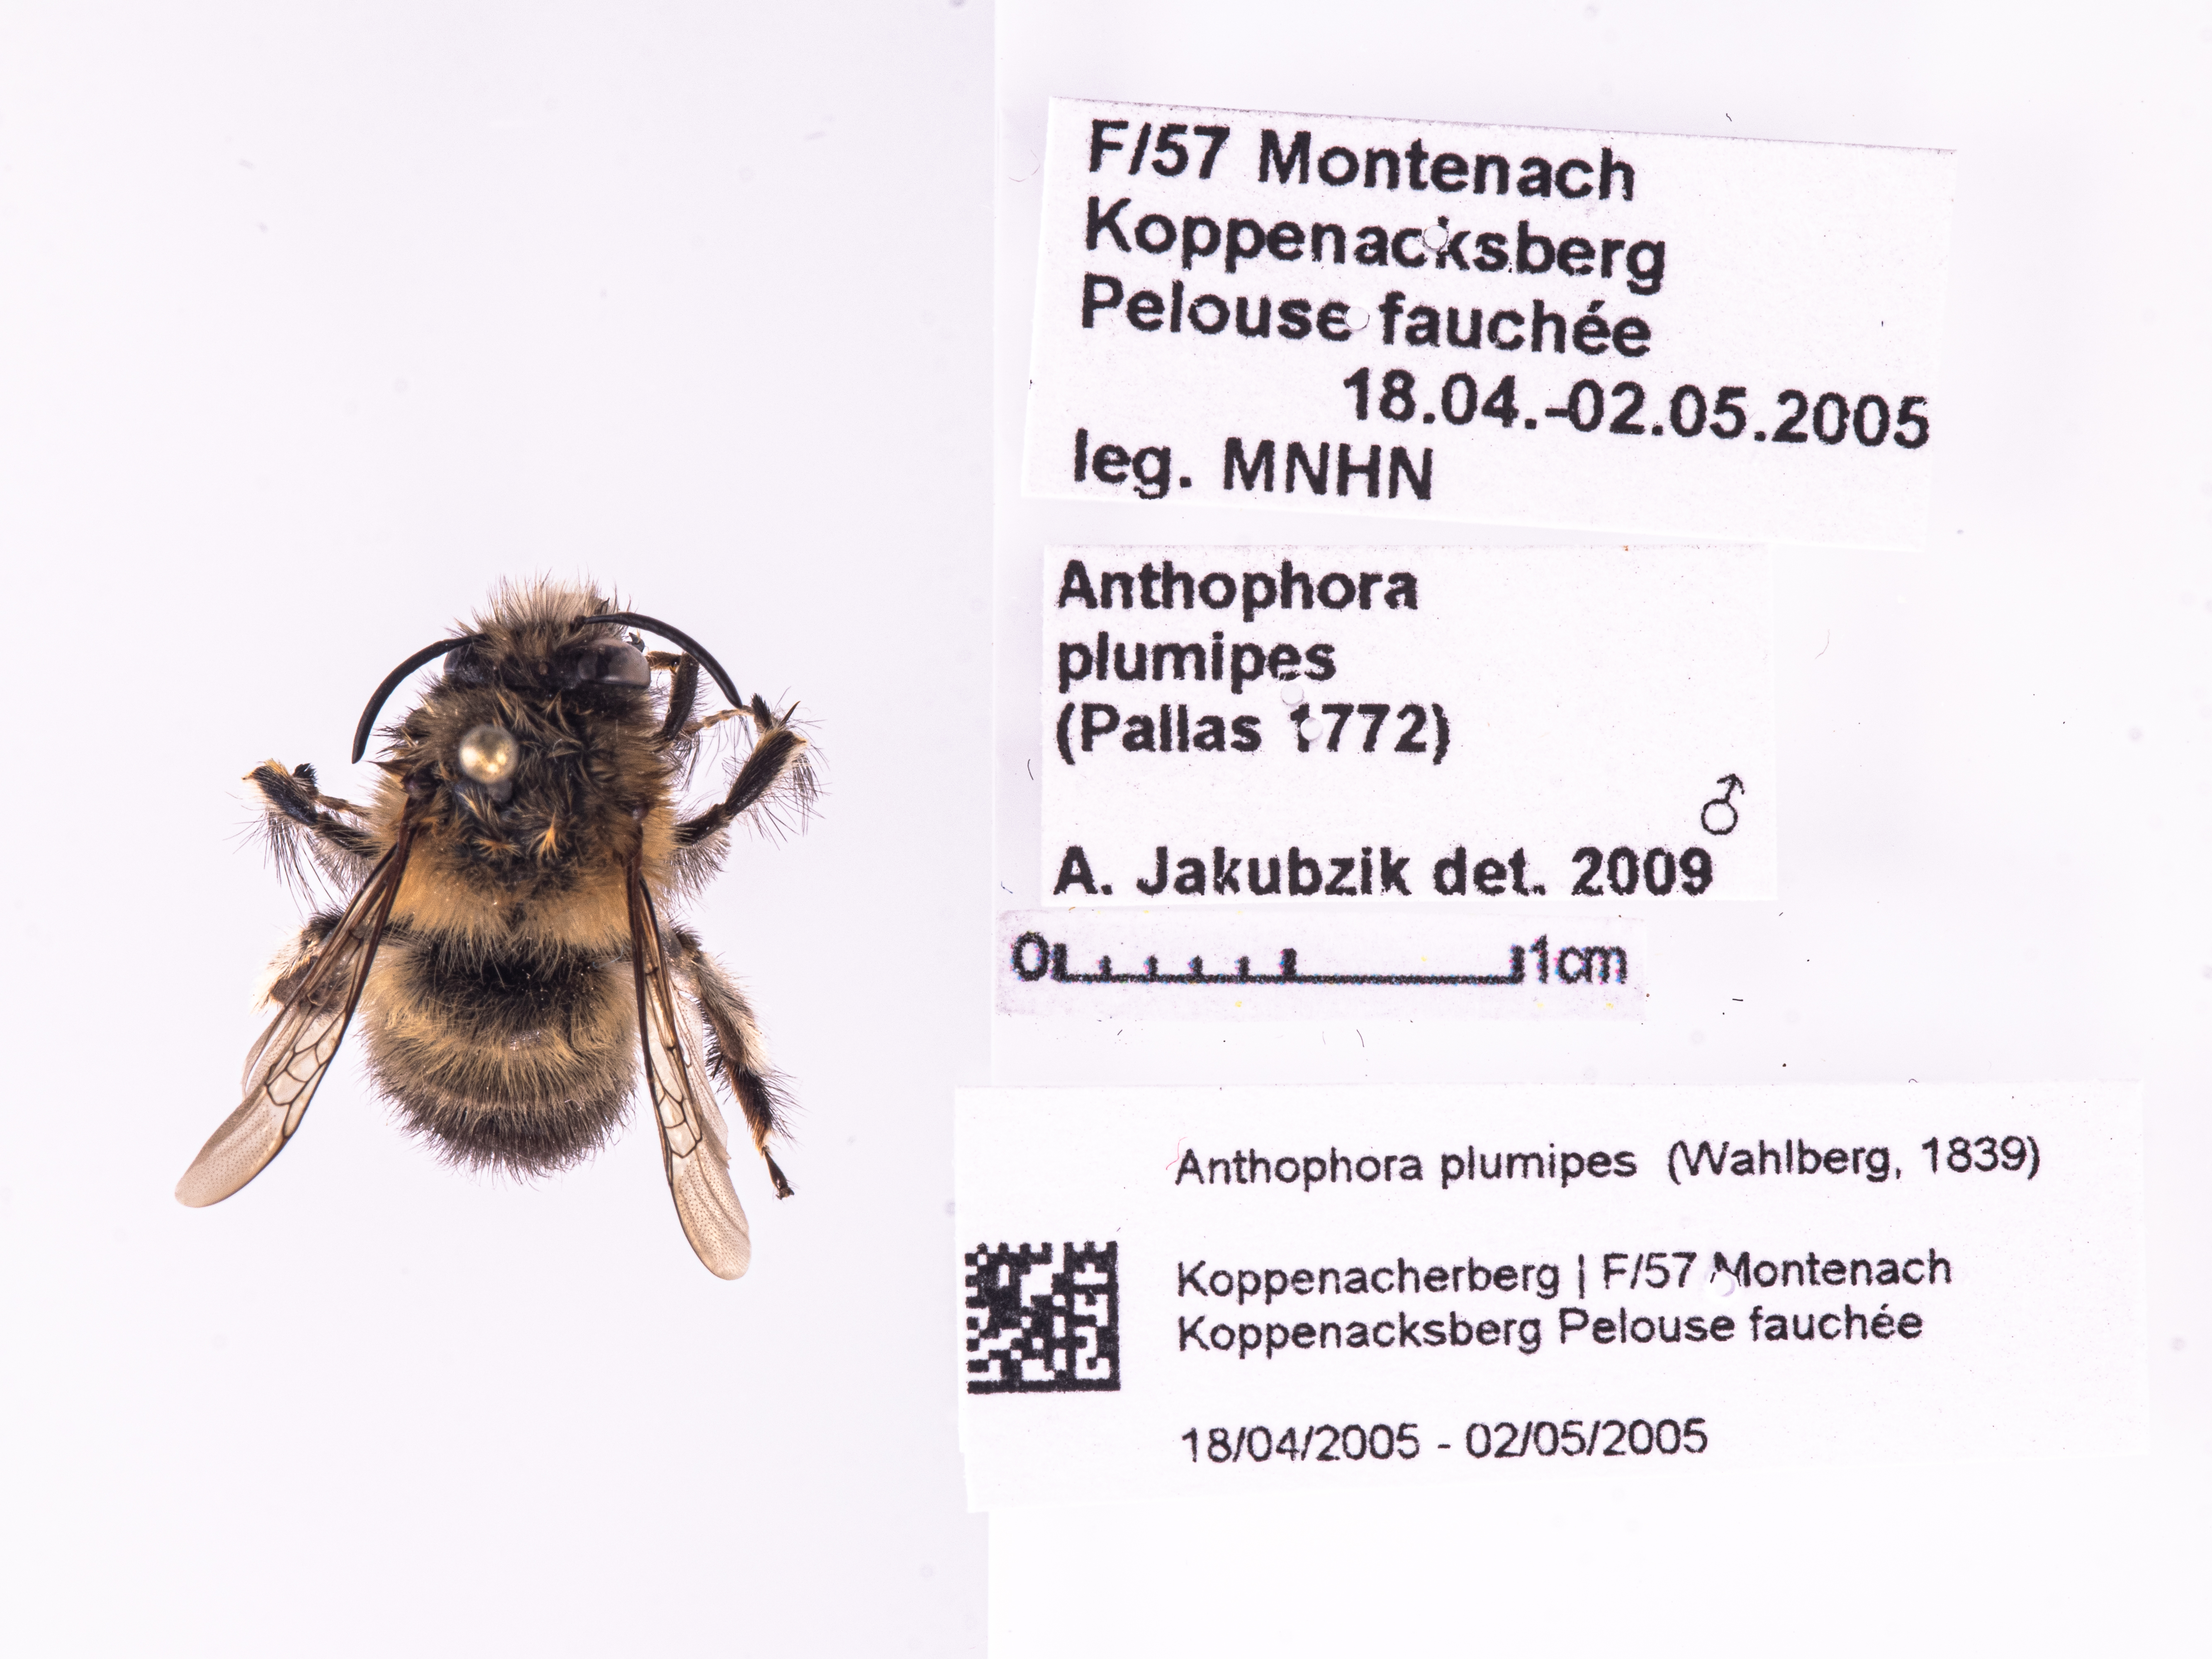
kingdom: Animalia
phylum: Arthropoda
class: Insecta
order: Hymenoptera
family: Apidae
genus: Anthophora
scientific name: Anthophora plumipes
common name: Hairy-footed flower bee
